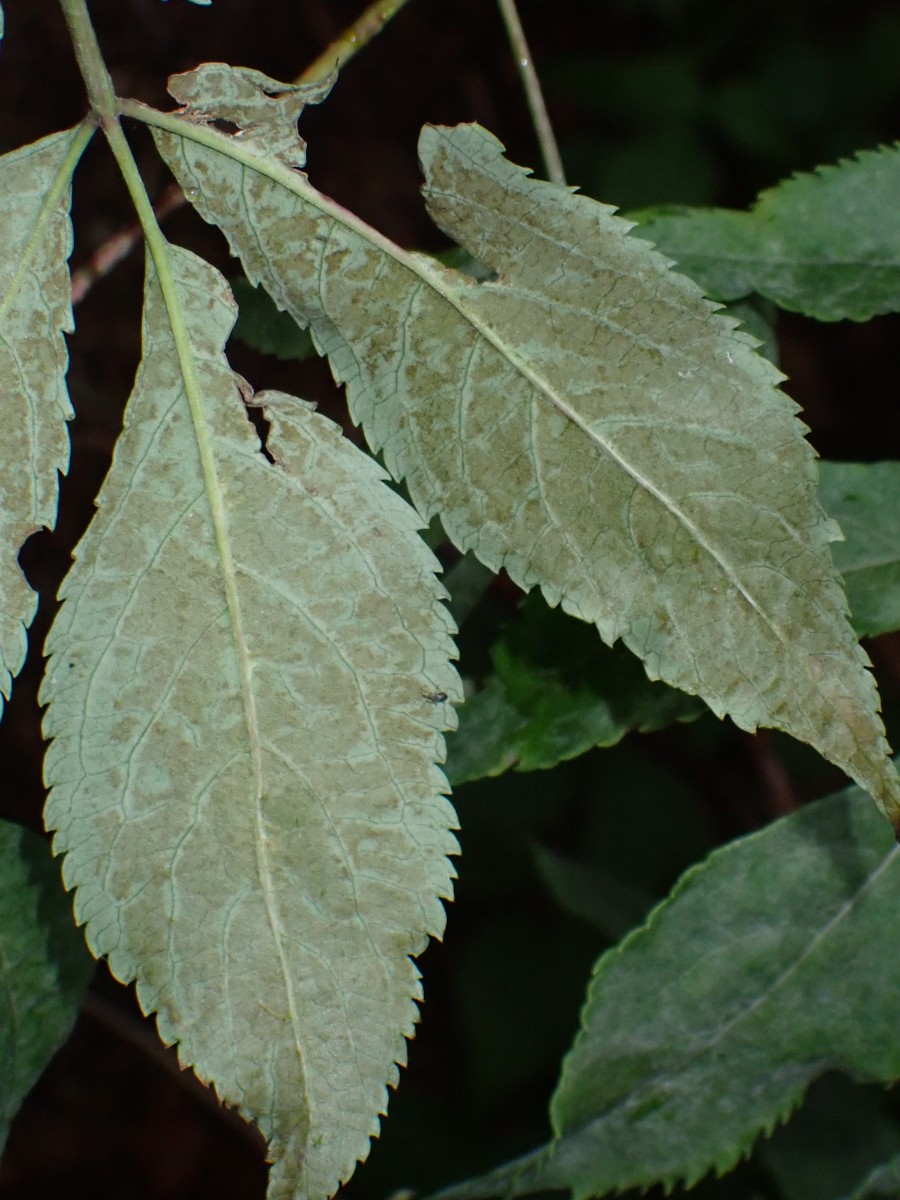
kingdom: Fungi
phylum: Ascomycota
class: Leotiomycetes
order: Helotiales
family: Erysiphaceae
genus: Erysiphe
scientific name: Erysiphe vanbruntiana
